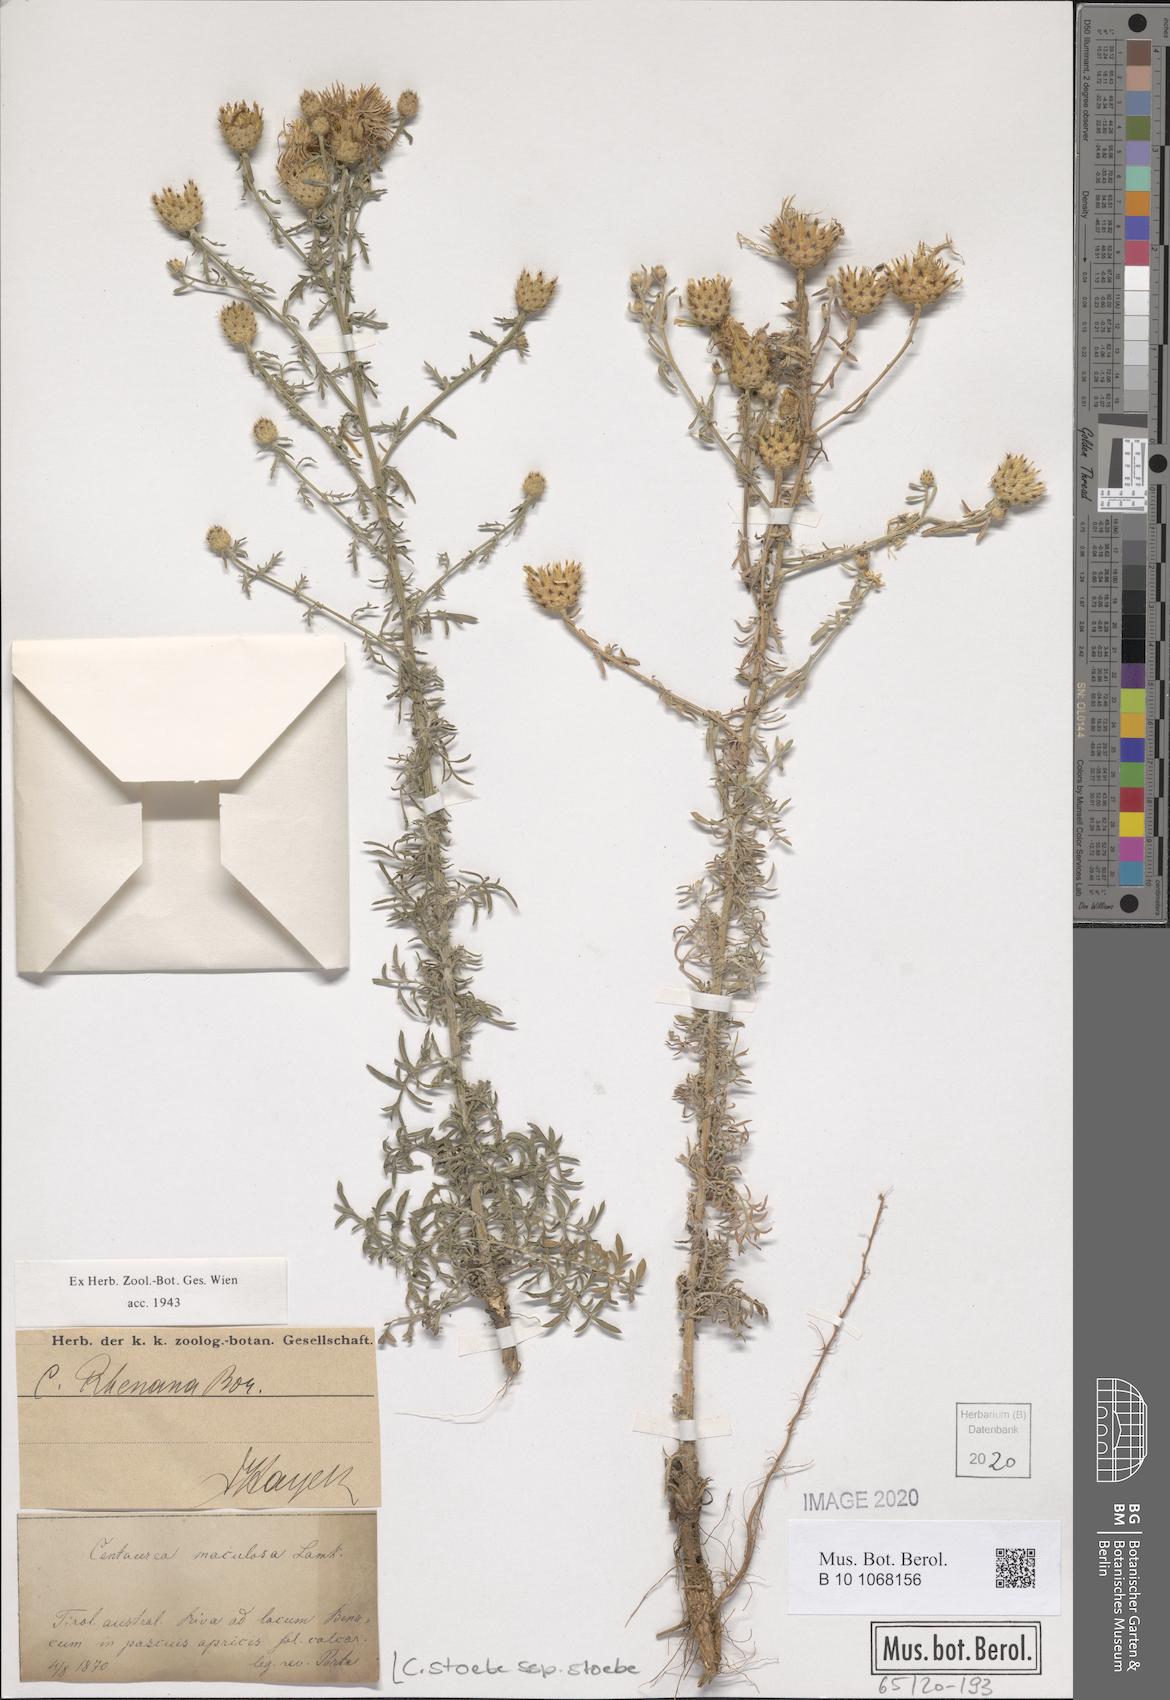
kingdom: Plantae
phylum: Tracheophyta
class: Magnoliopsida
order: Asterales
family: Asteraceae
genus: Centaurea
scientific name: Centaurea stoebe
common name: Spotted knapweed
